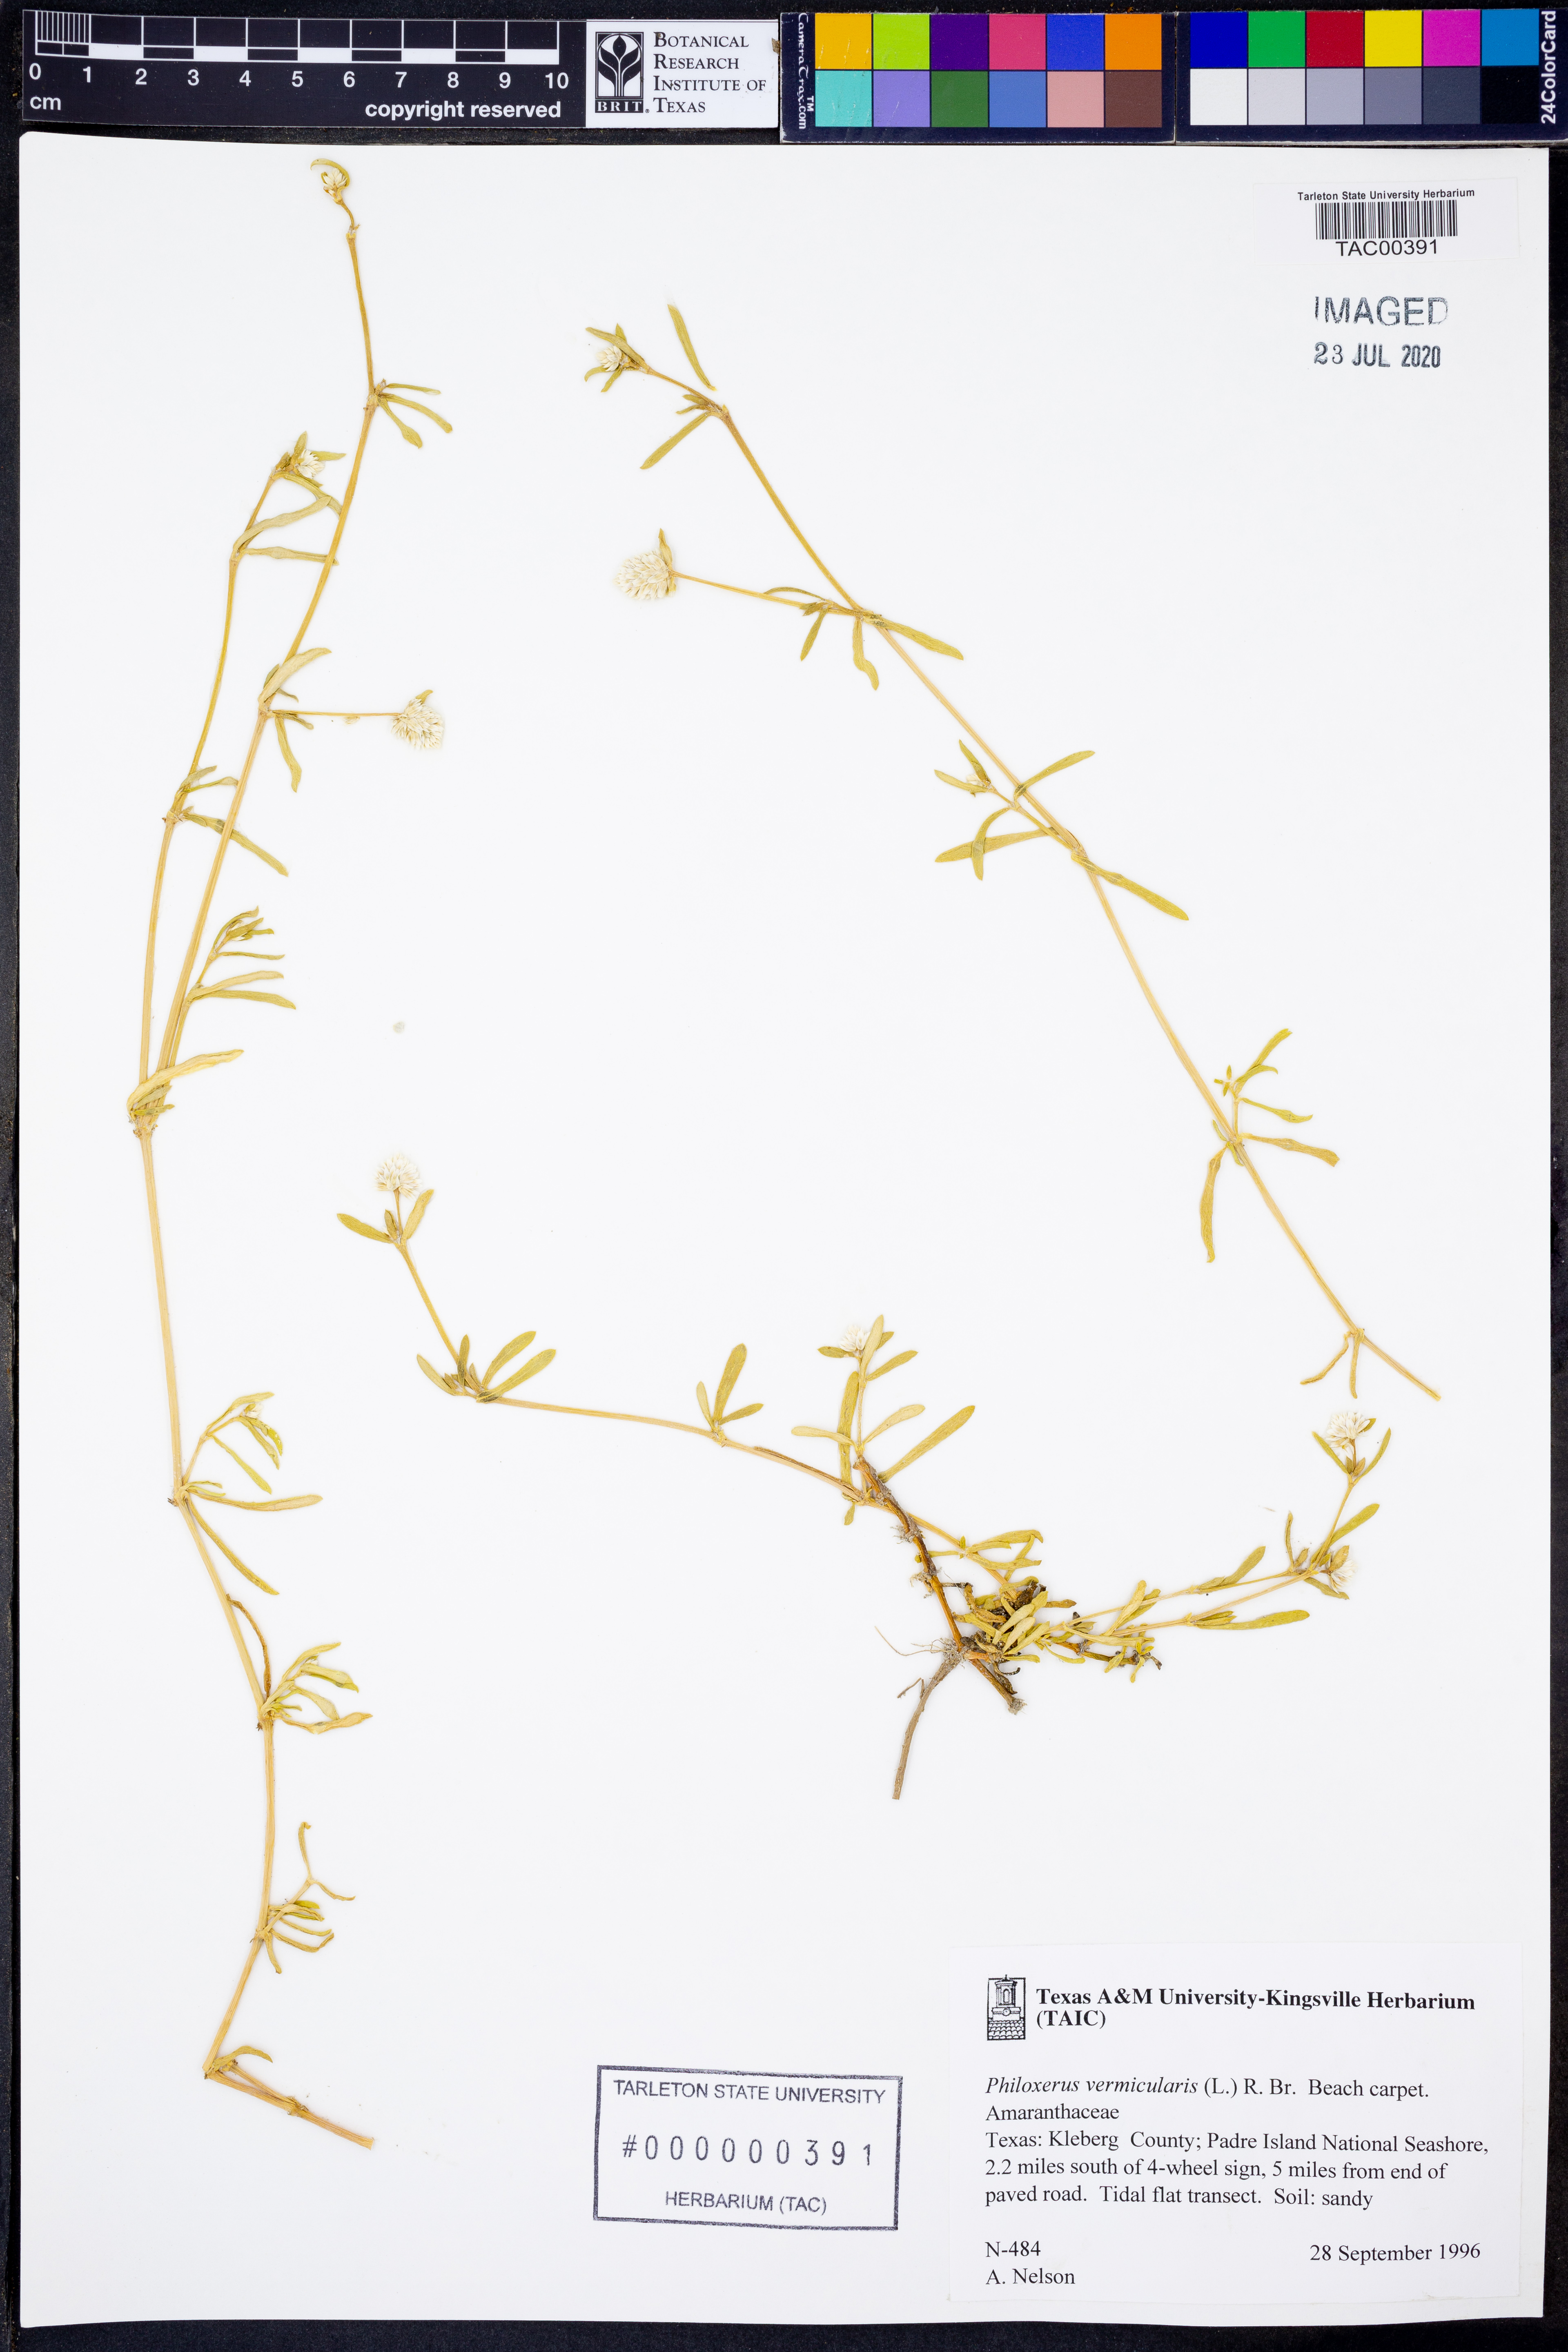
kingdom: Plantae
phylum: Tracheophyta
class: Magnoliopsida
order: Caryophyllales
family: Amaranthaceae
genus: Gomphrena
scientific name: Gomphrena
